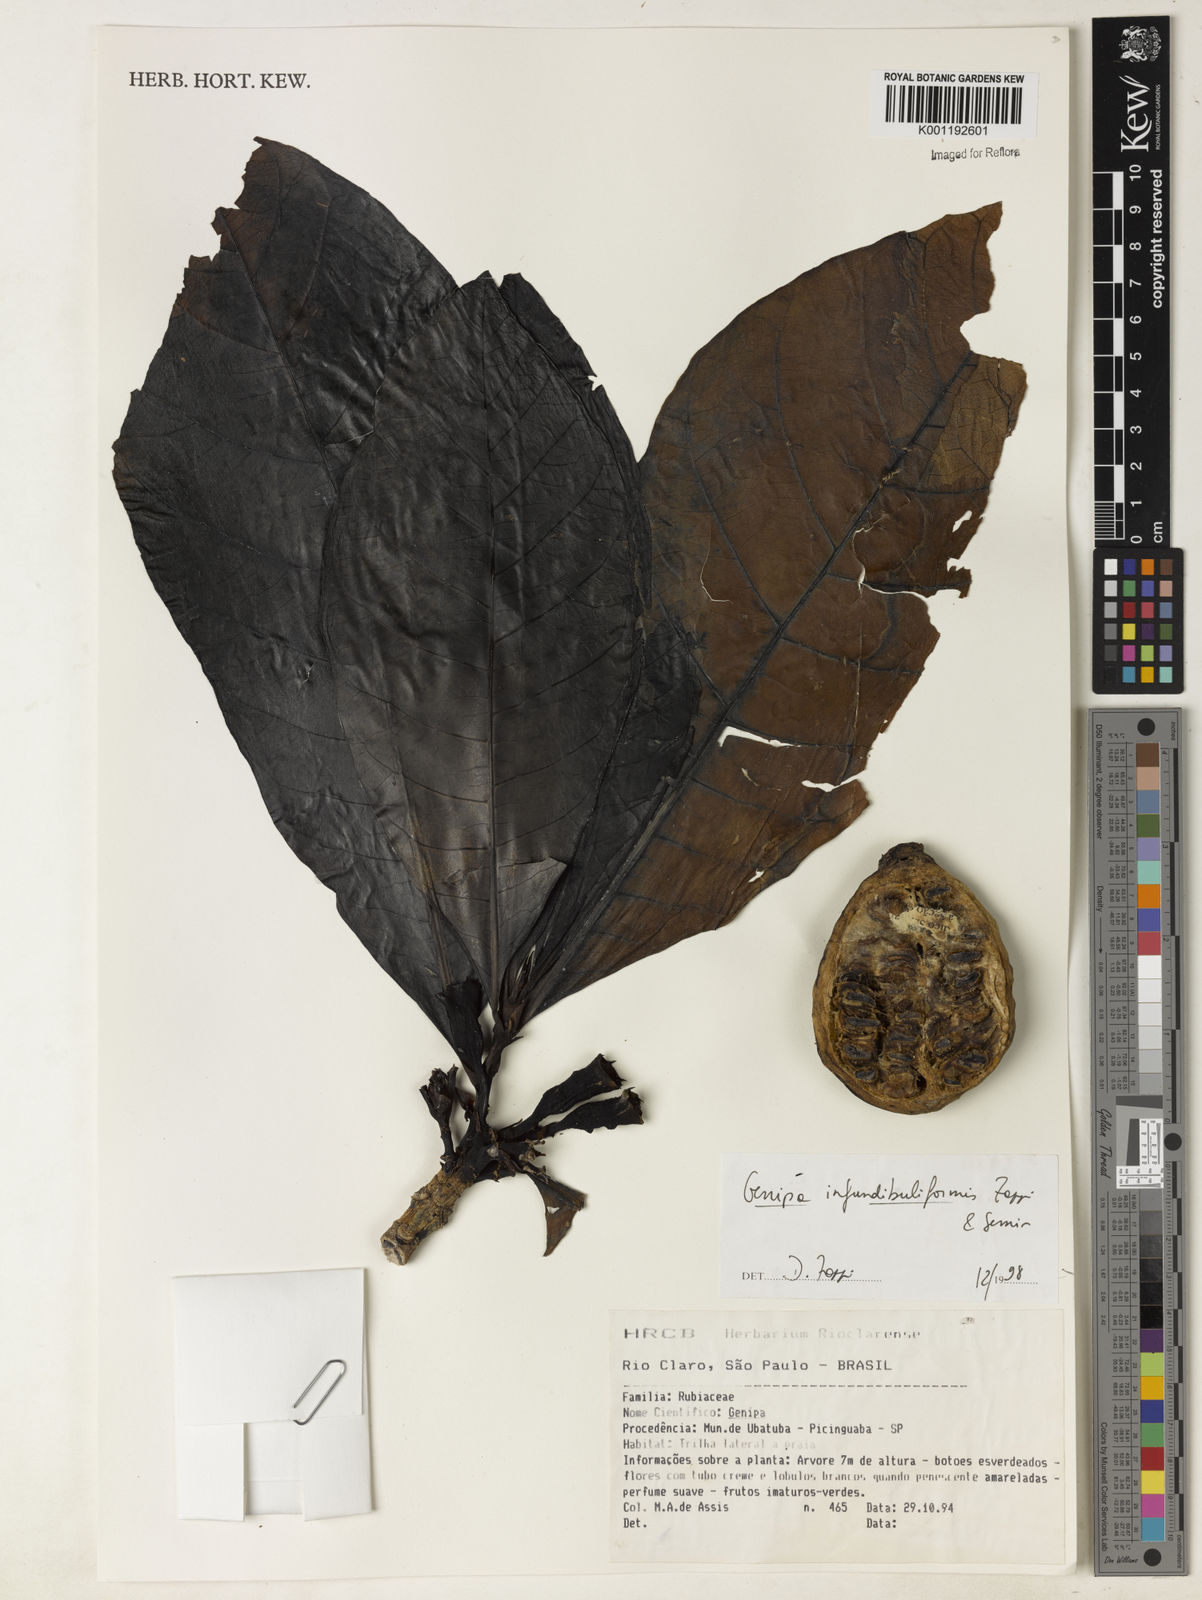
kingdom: Plantae
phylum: Tracheophyta
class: Magnoliopsida
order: Gentianales
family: Rubiaceae
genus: Genipa
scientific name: Genipa infundibuliformis
